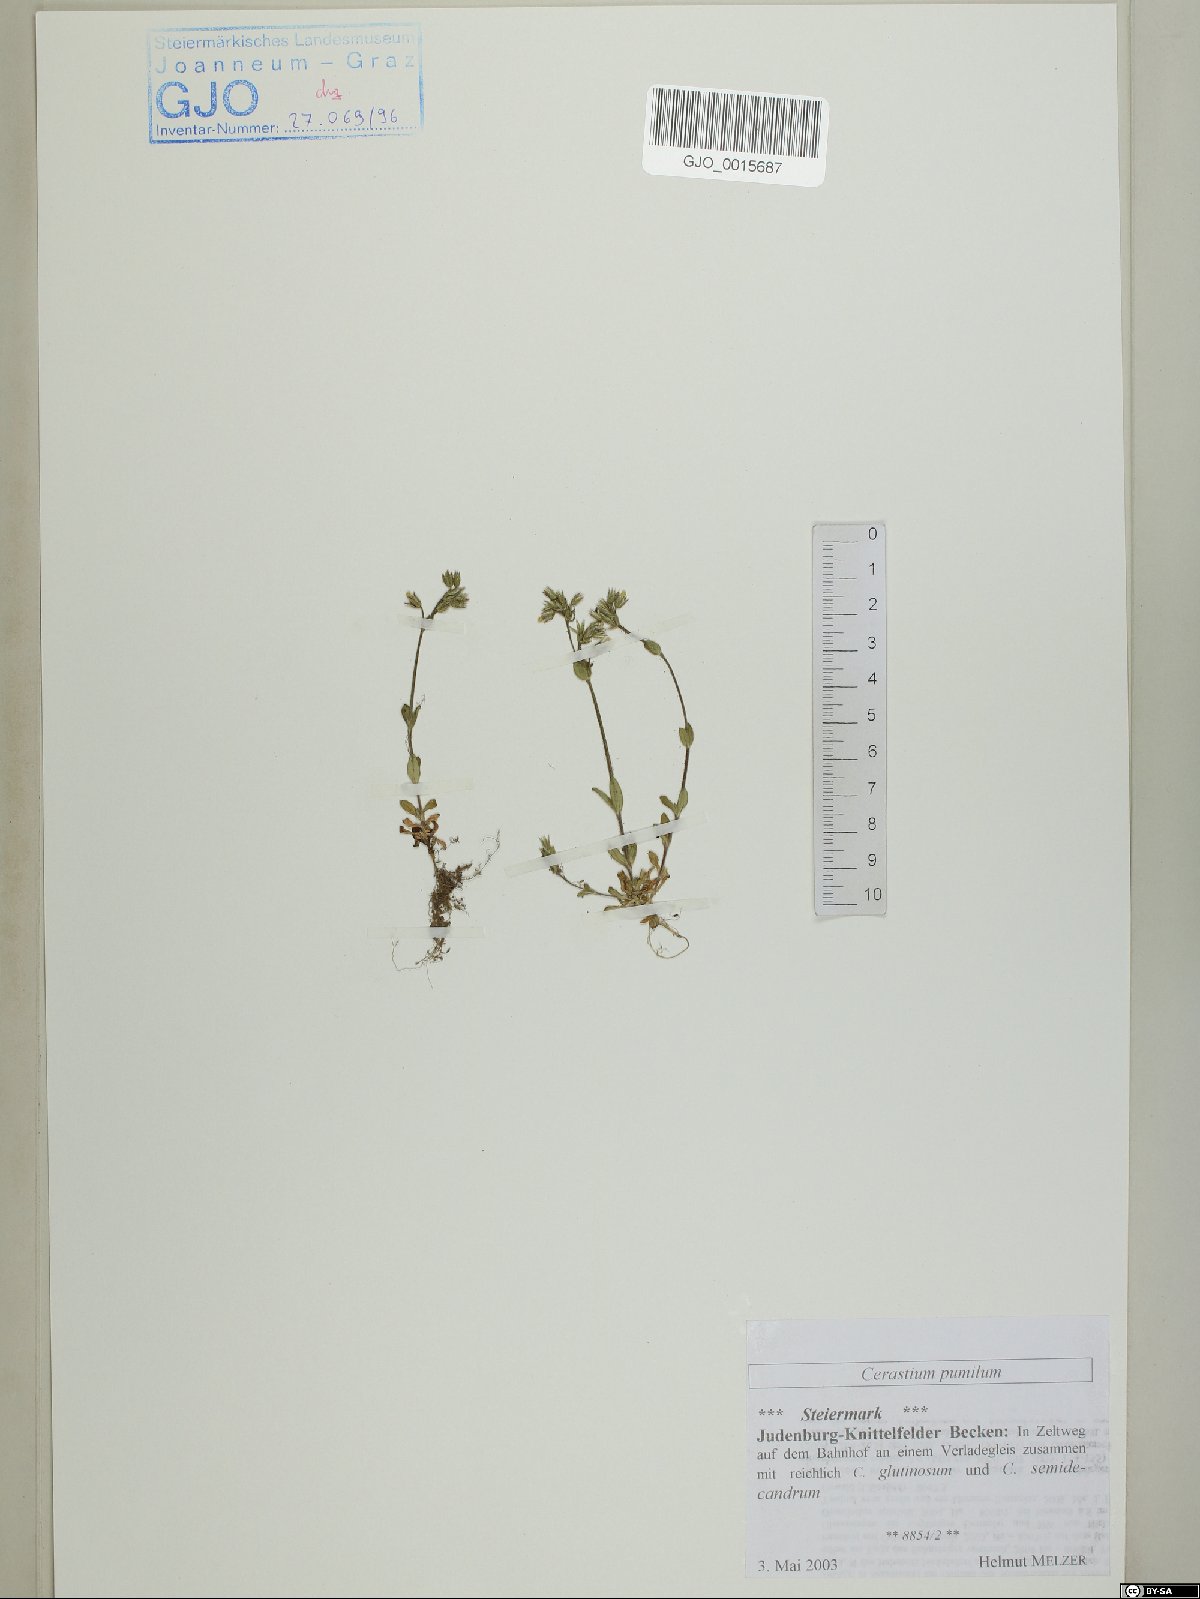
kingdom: Plantae
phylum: Tracheophyta
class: Magnoliopsida
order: Caryophyllales
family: Caryophyllaceae
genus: Cerastium
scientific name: Cerastium pumilum
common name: Dwarf mouse-ear
